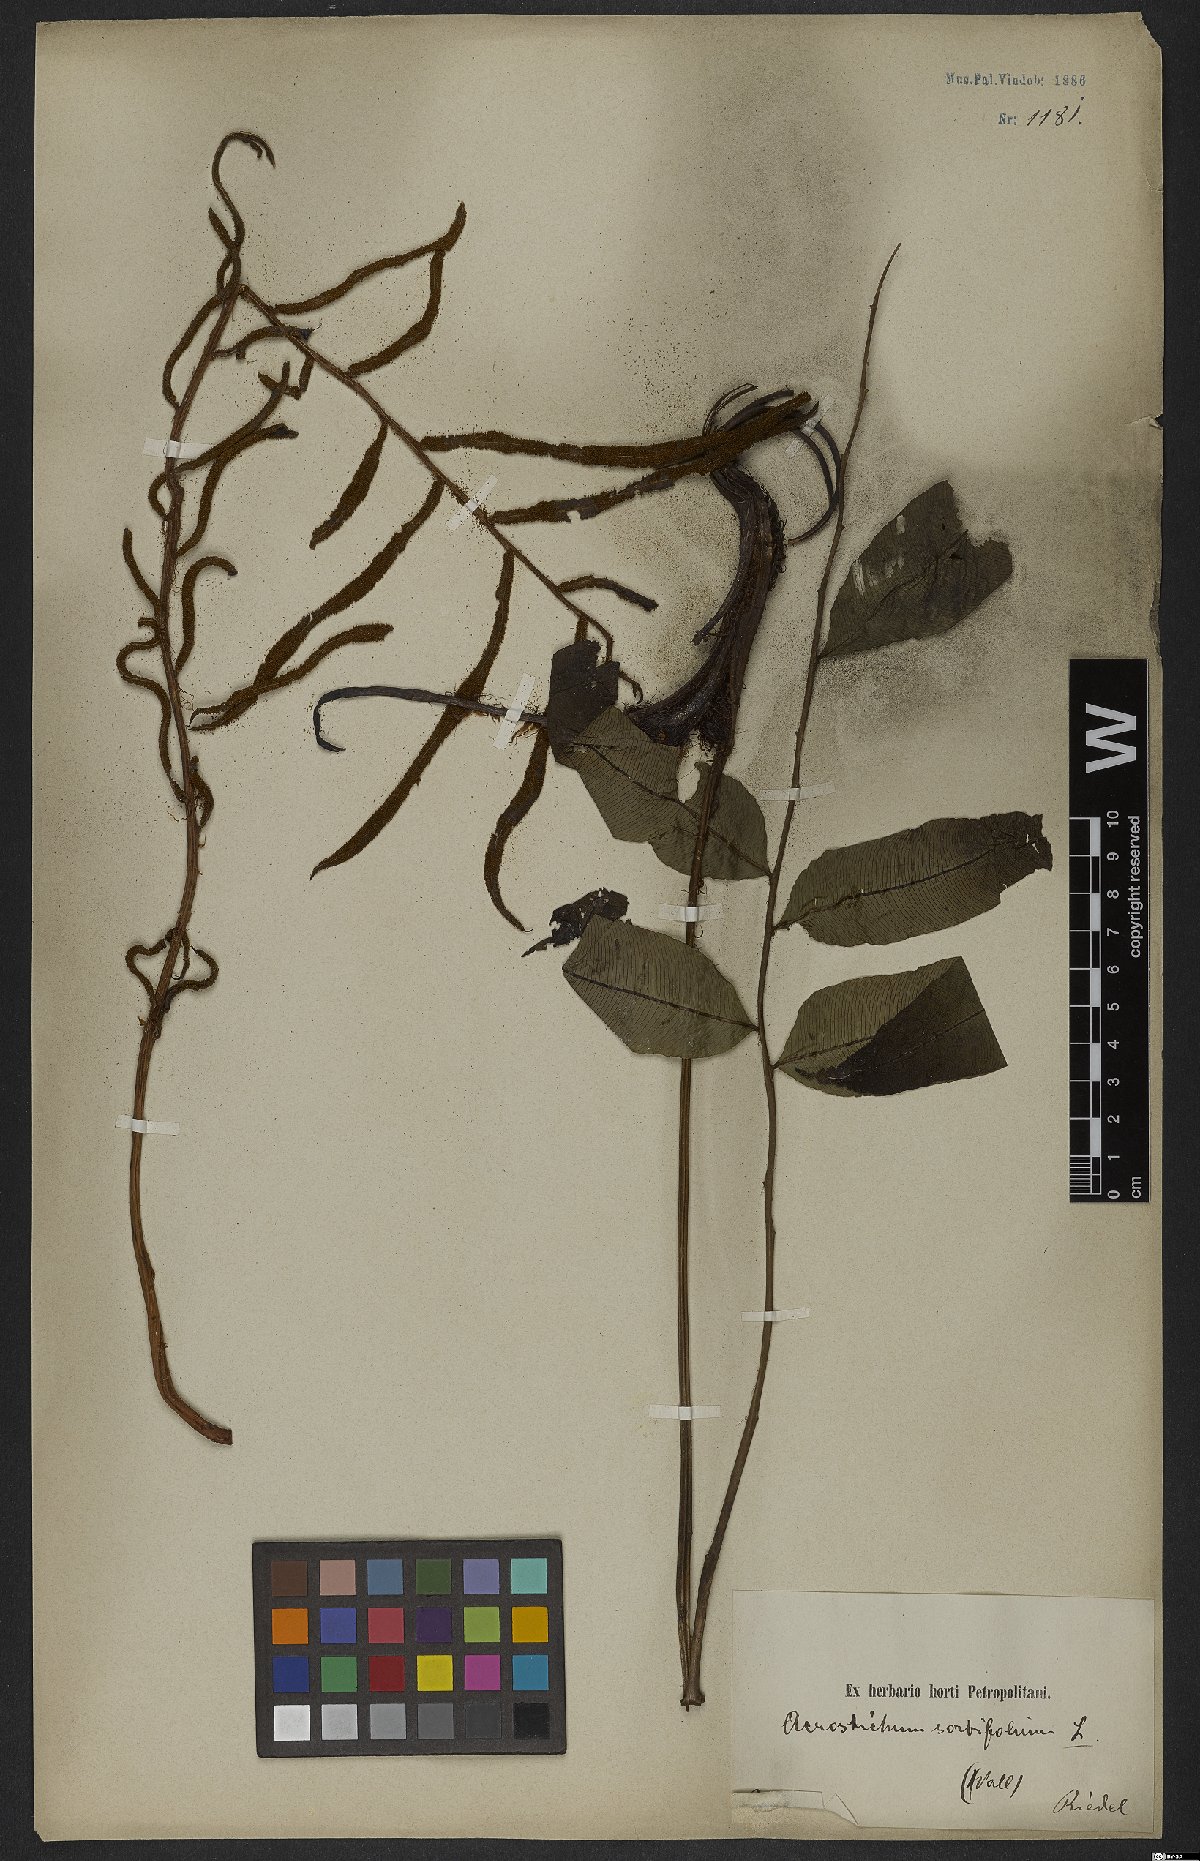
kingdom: Plantae
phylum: Tracheophyta
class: Polypodiopsida
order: Polypodiales
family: Blechnaceae
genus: Stenochlaena
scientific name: Stenochlaena
